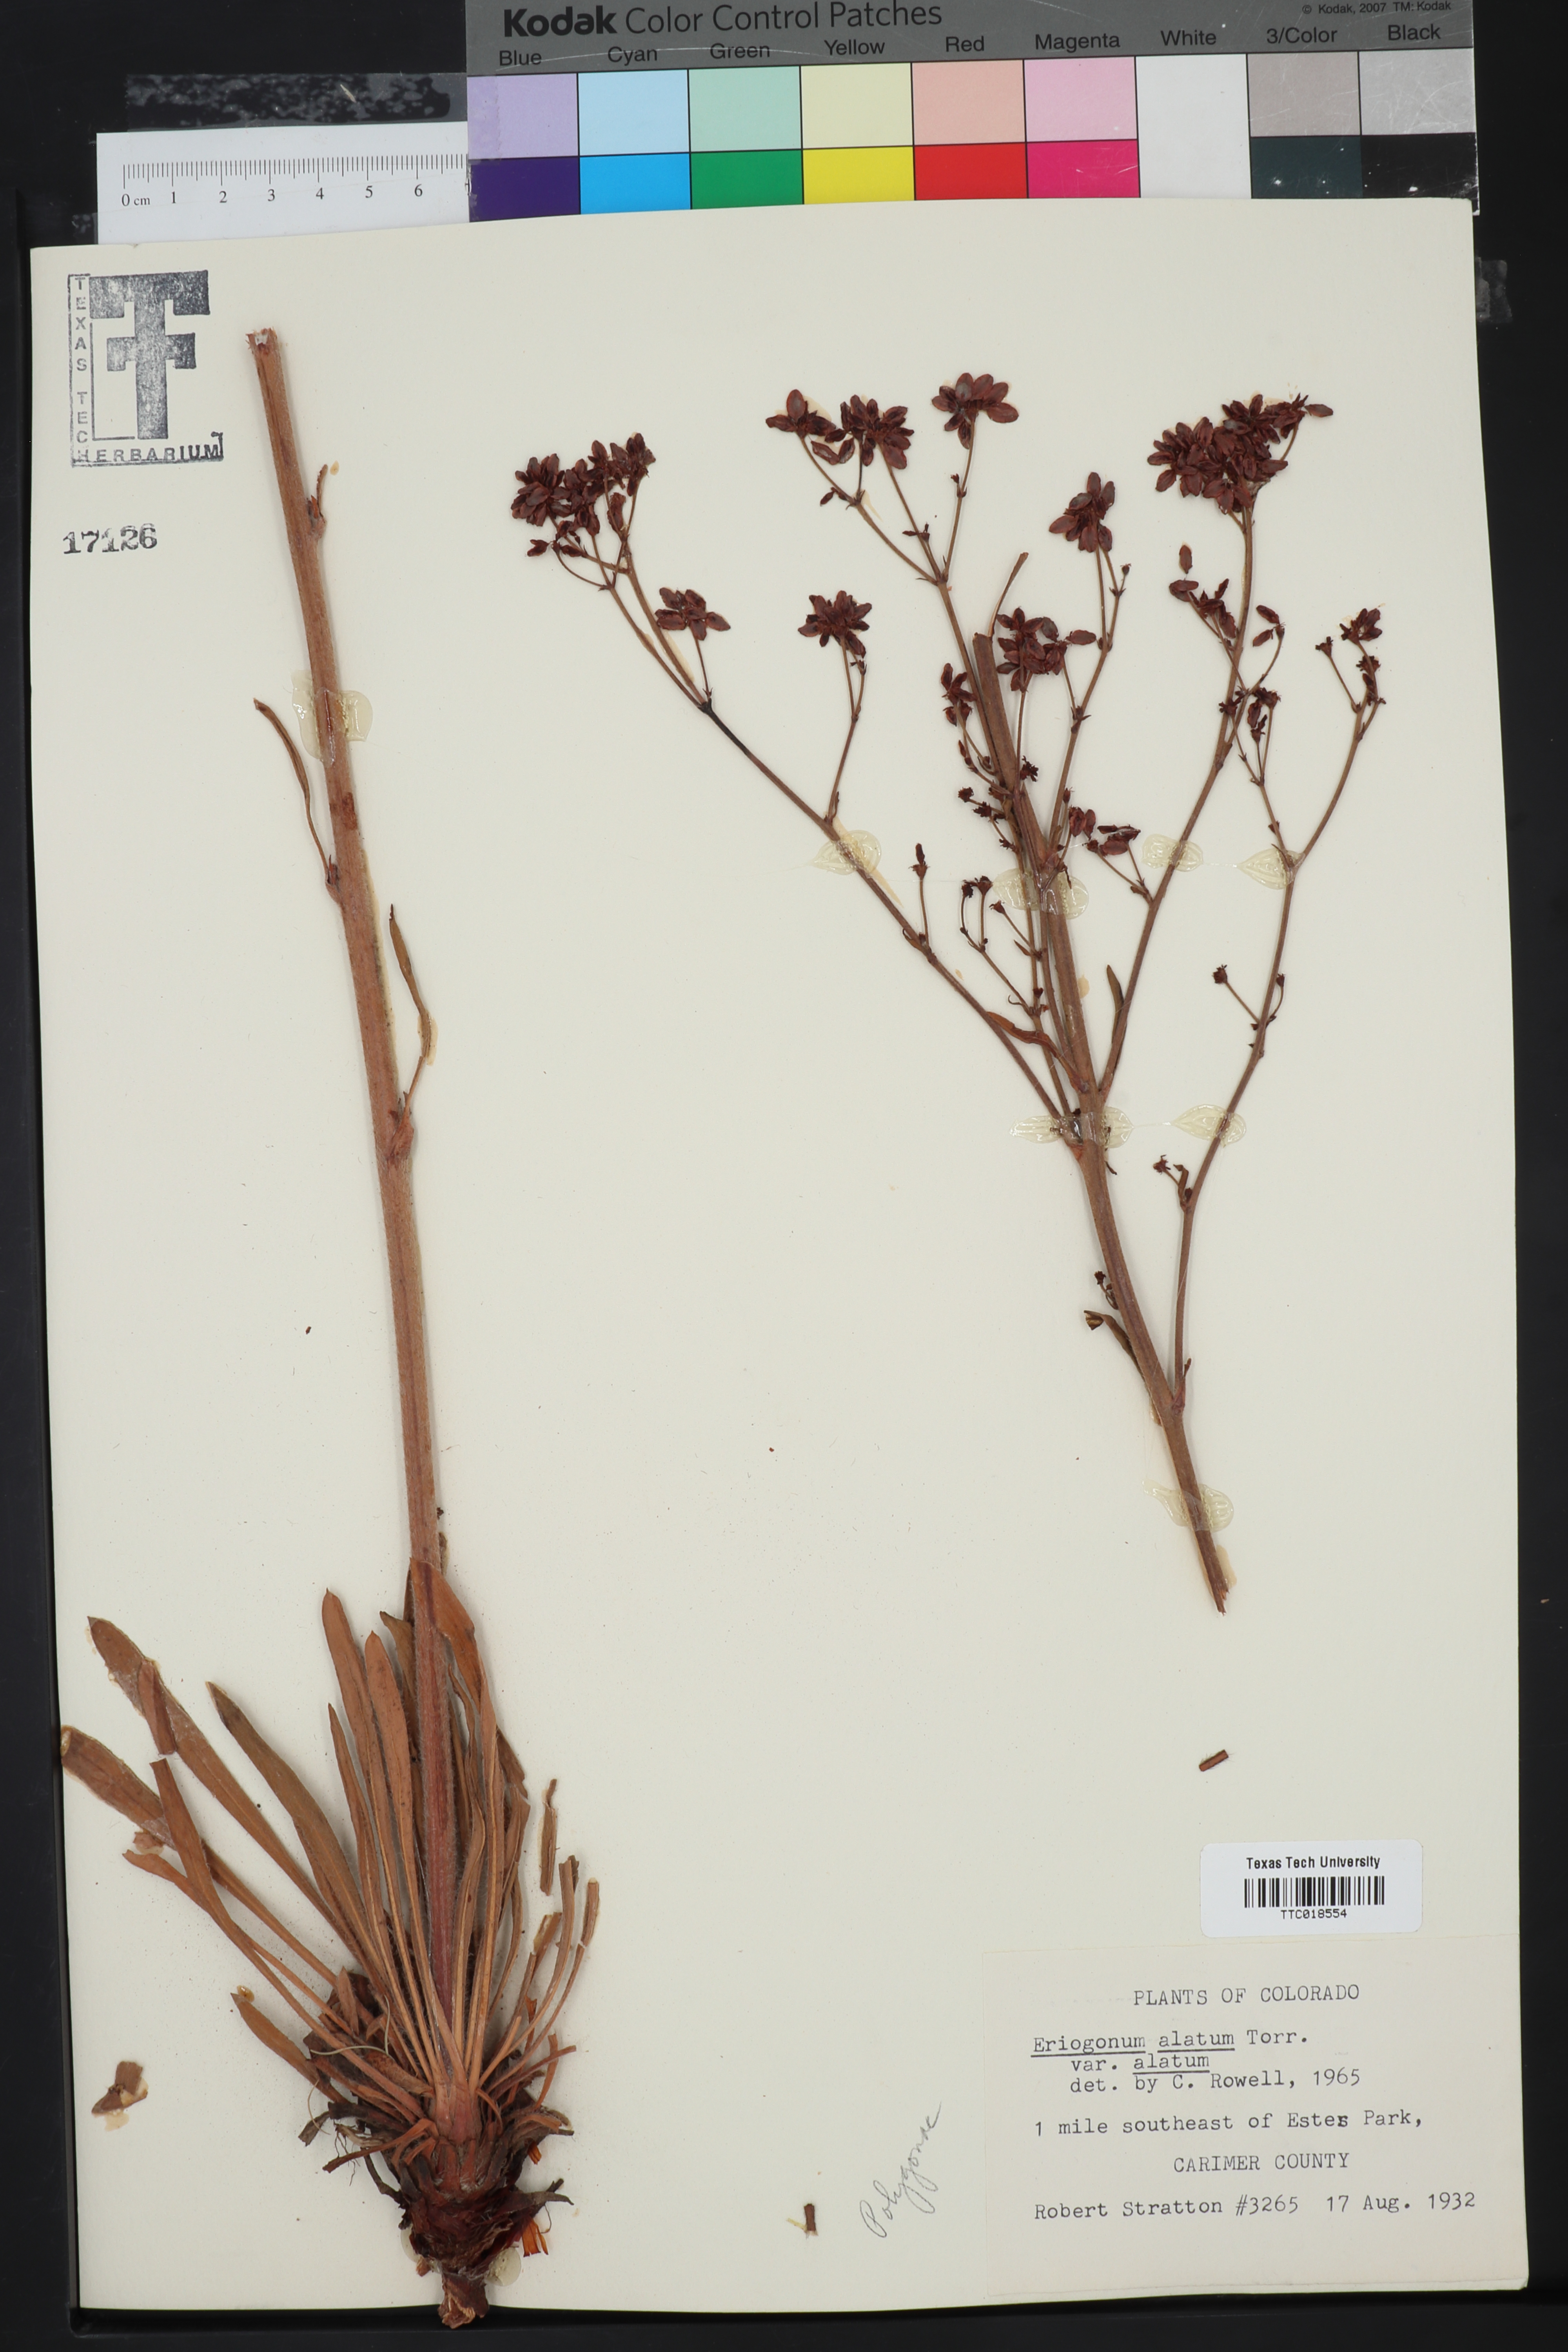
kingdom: Plantae
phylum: Tracheophyta
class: Magnoliopsida
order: Caryophyllales
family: Polygonaceae
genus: Eriogonum
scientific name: Eriogonum alatum
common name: Winged eriogonum
